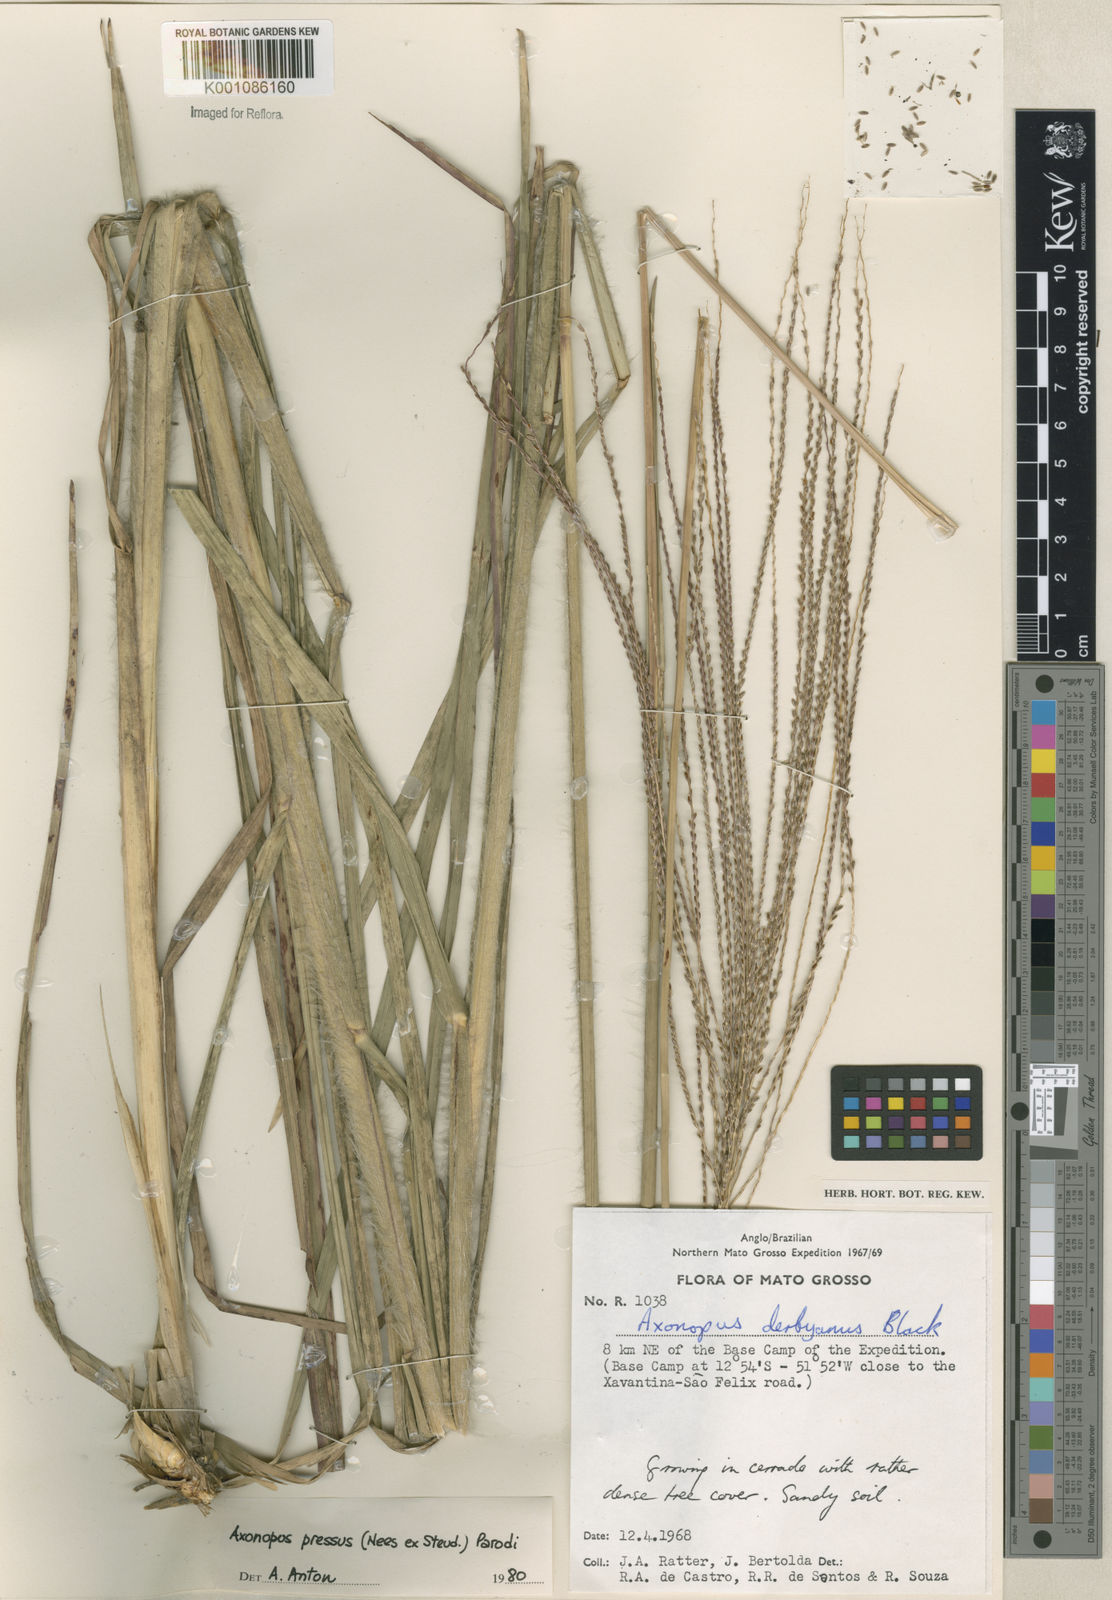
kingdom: Plantae
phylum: Tracheophyta
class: Liliopsida
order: Poales
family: Poaceae
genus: Axonopus
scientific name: Axonopus pressus
